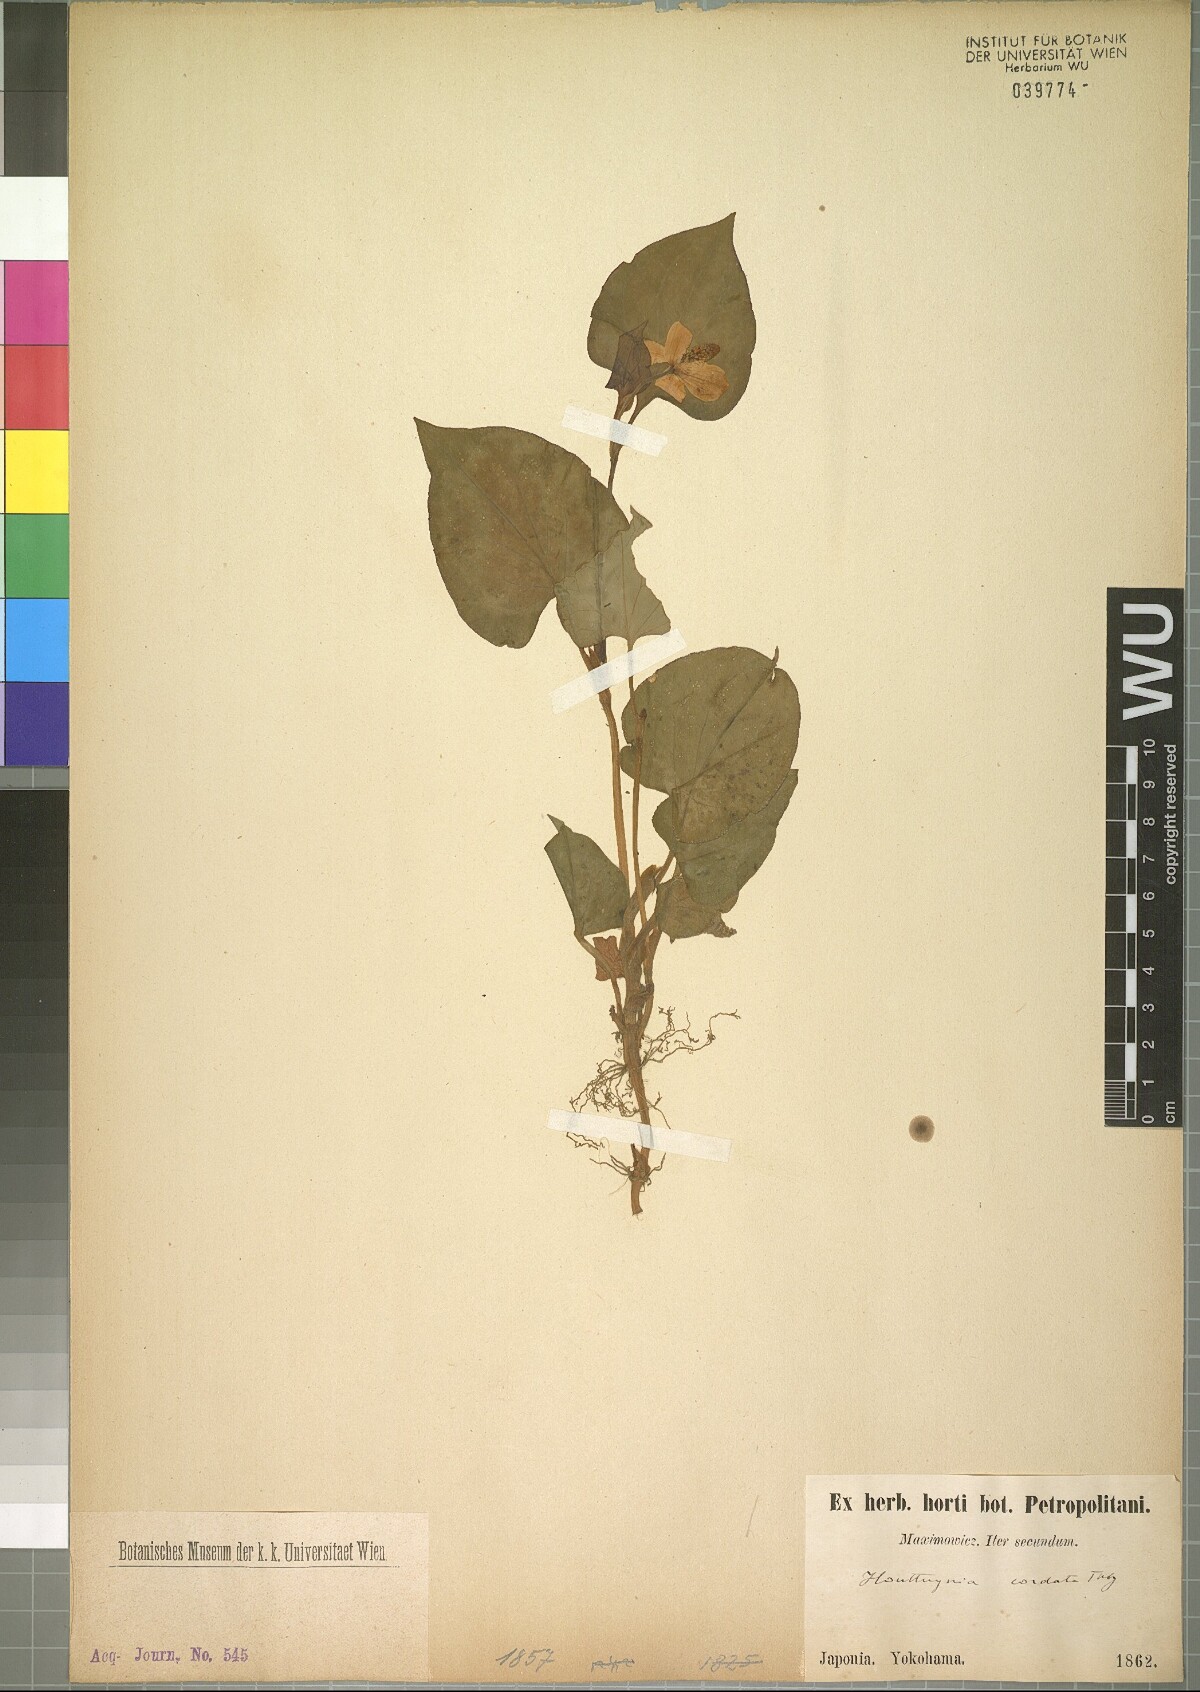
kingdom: Plantae
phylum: Tracheophyta
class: Magnoliopsida
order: Piperales
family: Saururaceae
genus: Houttuynia
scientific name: Houttuynia cordata
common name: Chameleon
